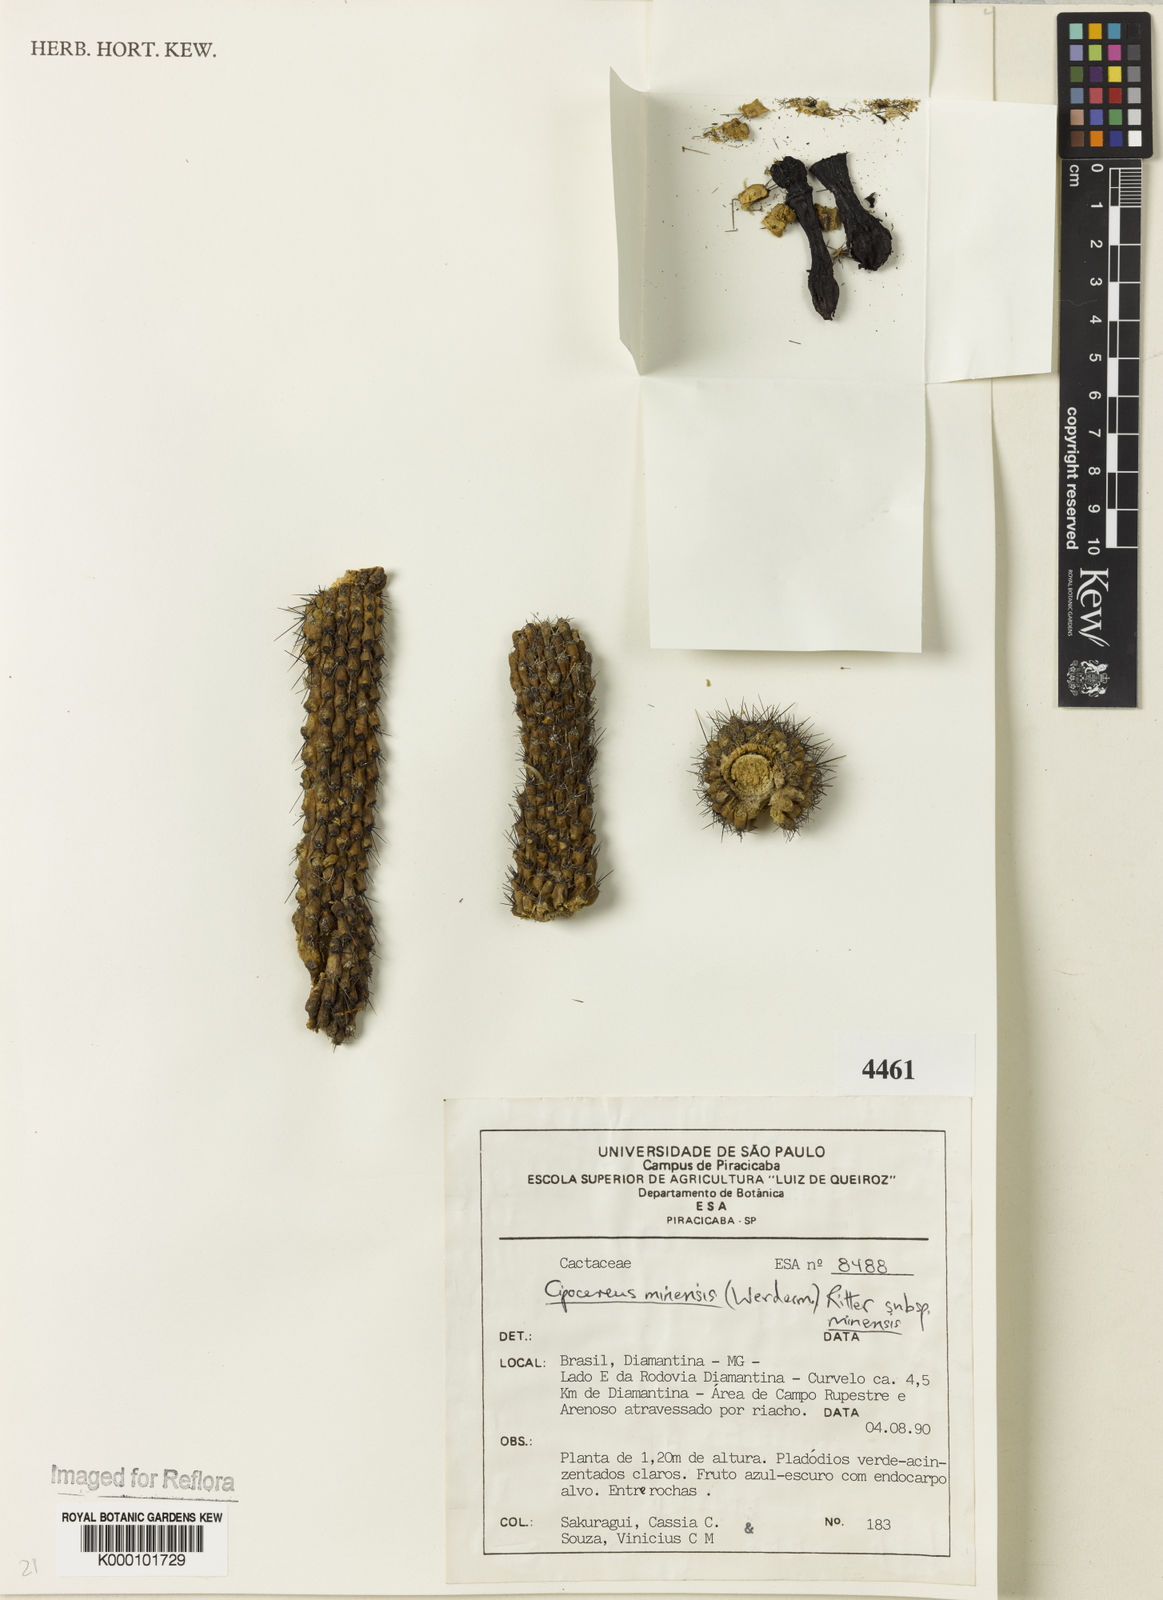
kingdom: Plantae
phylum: Tracheophyta
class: Magnoliopsida
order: Caryophyllales
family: Cactaceae
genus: Cipocereus
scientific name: Cipocereus minensis
